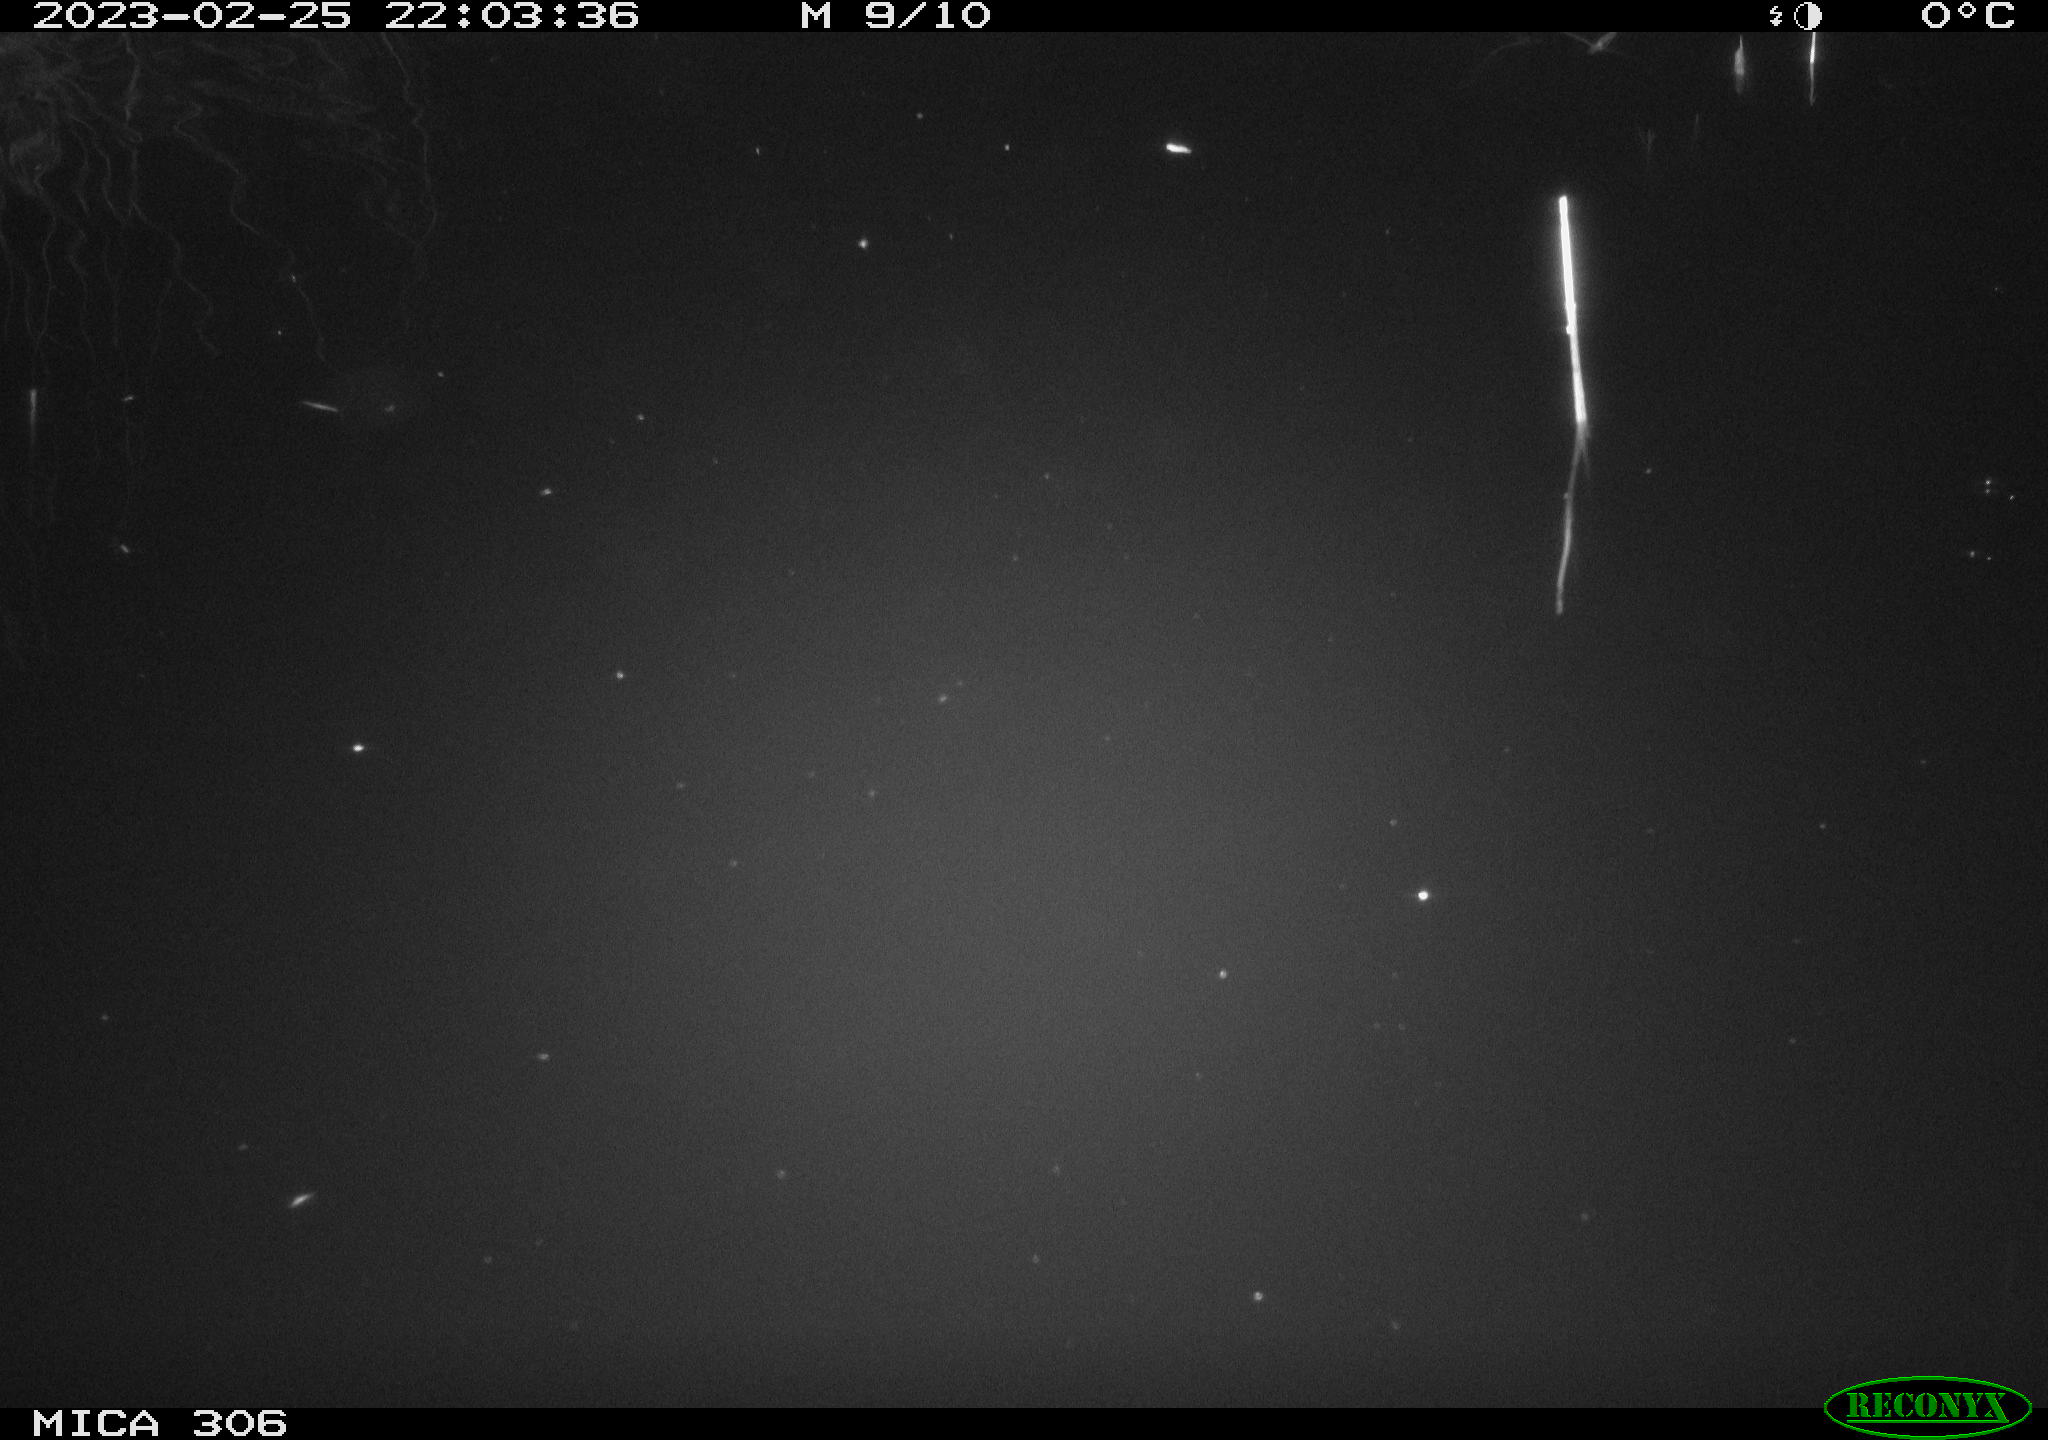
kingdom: Animalia
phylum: Chordata
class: Mammalia
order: Rodentia
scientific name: Rodentia
